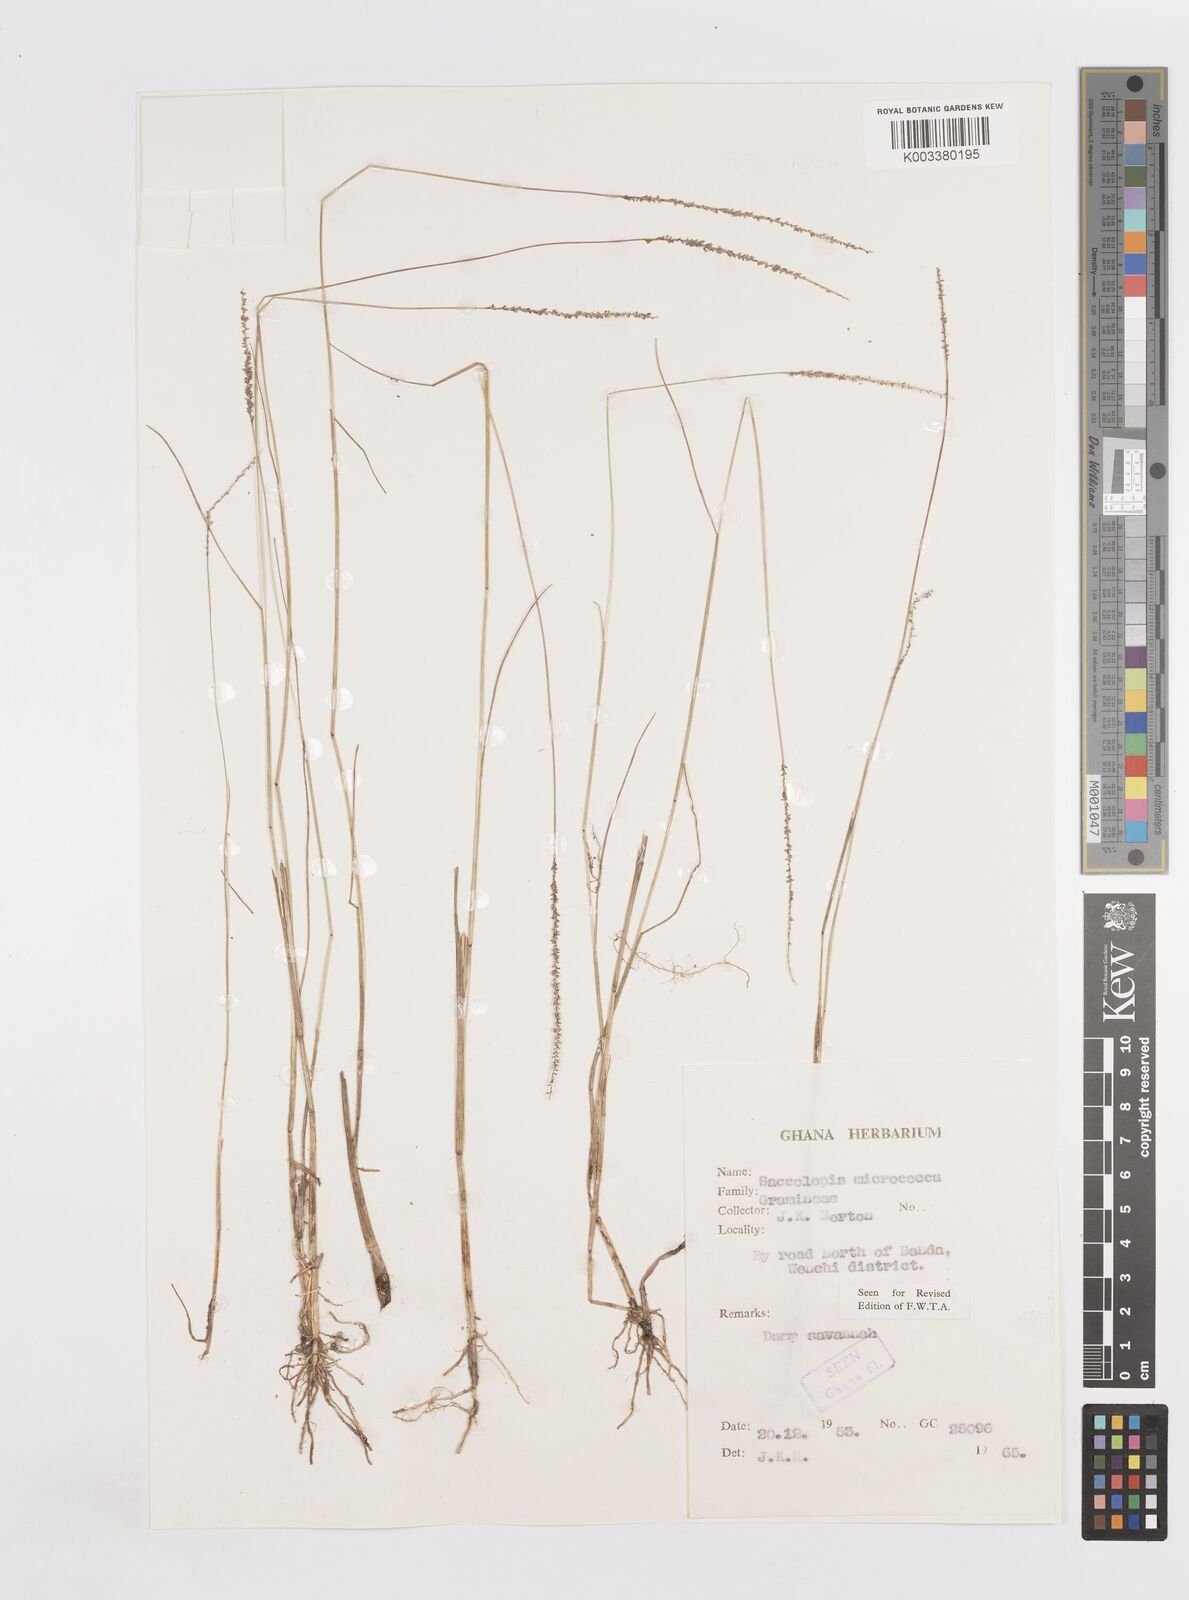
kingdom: Plantae
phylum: Tracheophyta
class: Liliopsida
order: Poales
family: Poaceae
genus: Sacciolepis
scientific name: Sacciolepis micrococca
